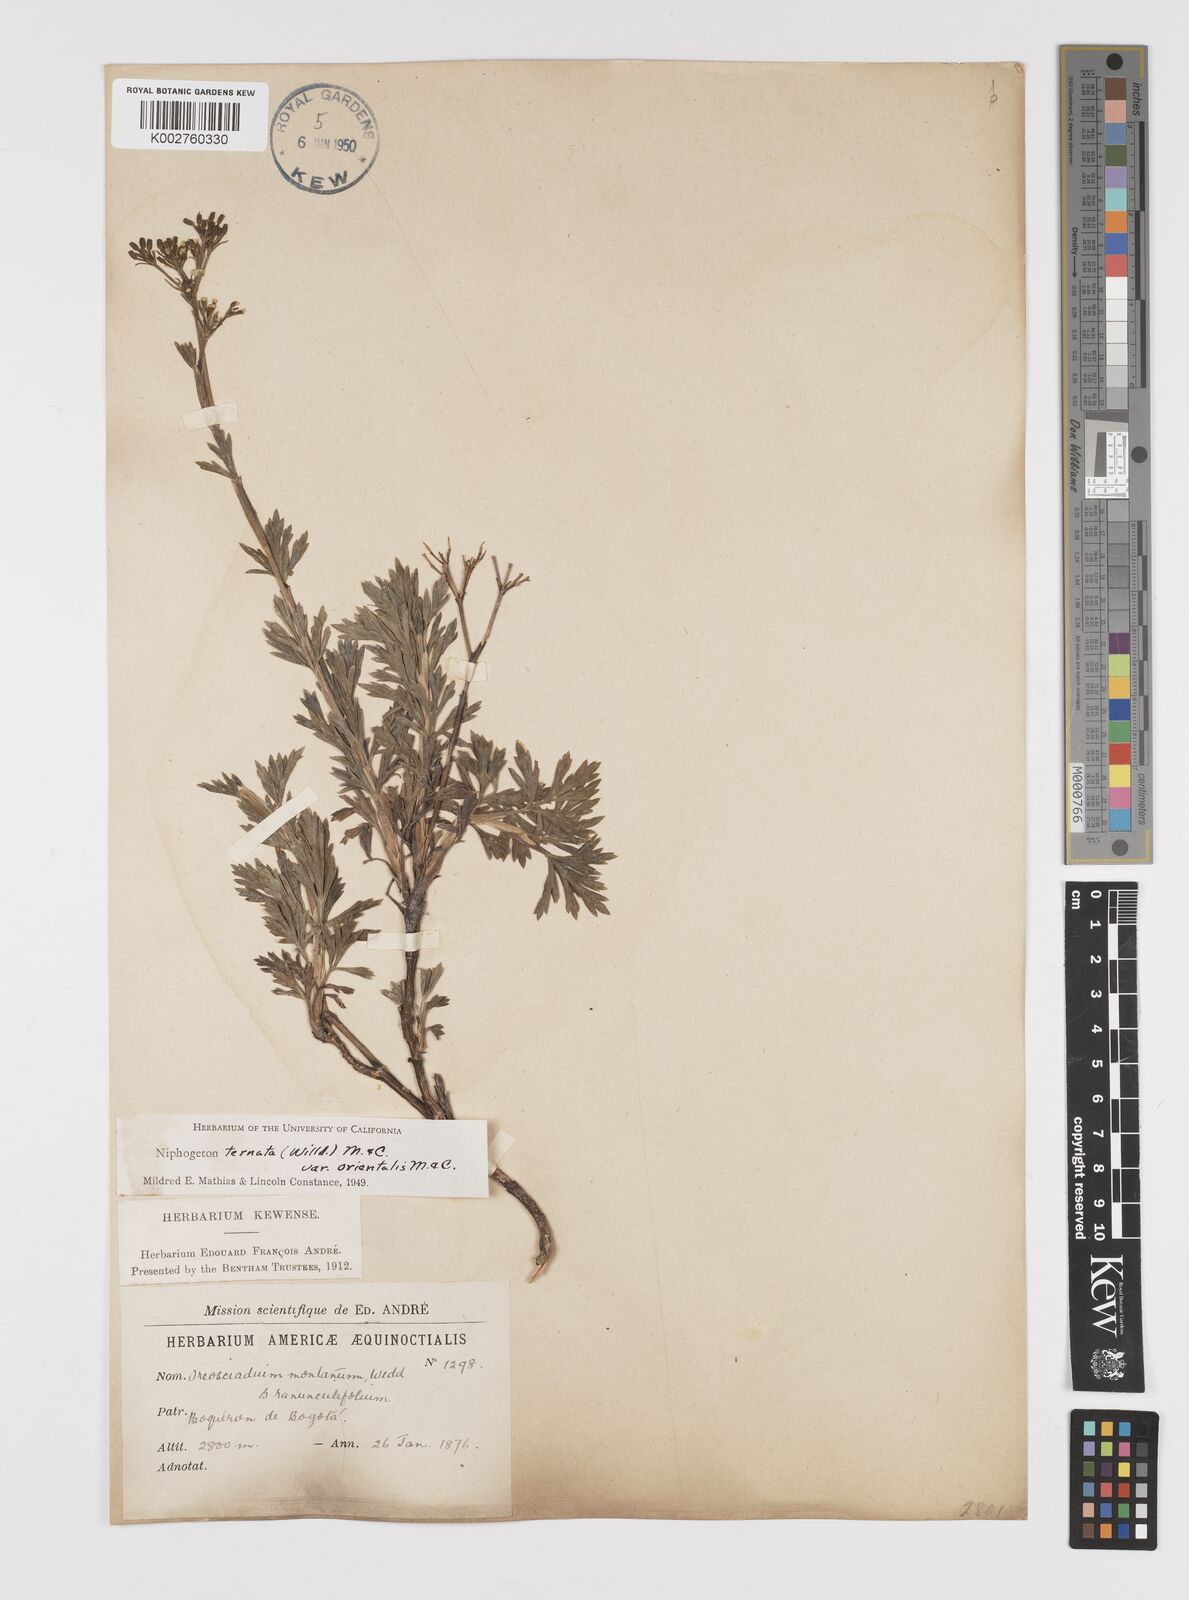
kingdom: Plantae
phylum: Tracheophyta
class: Magnoliopsida
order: Apiales
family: Apiaceae
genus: Niphogeton
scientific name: Niphogeton ternata
